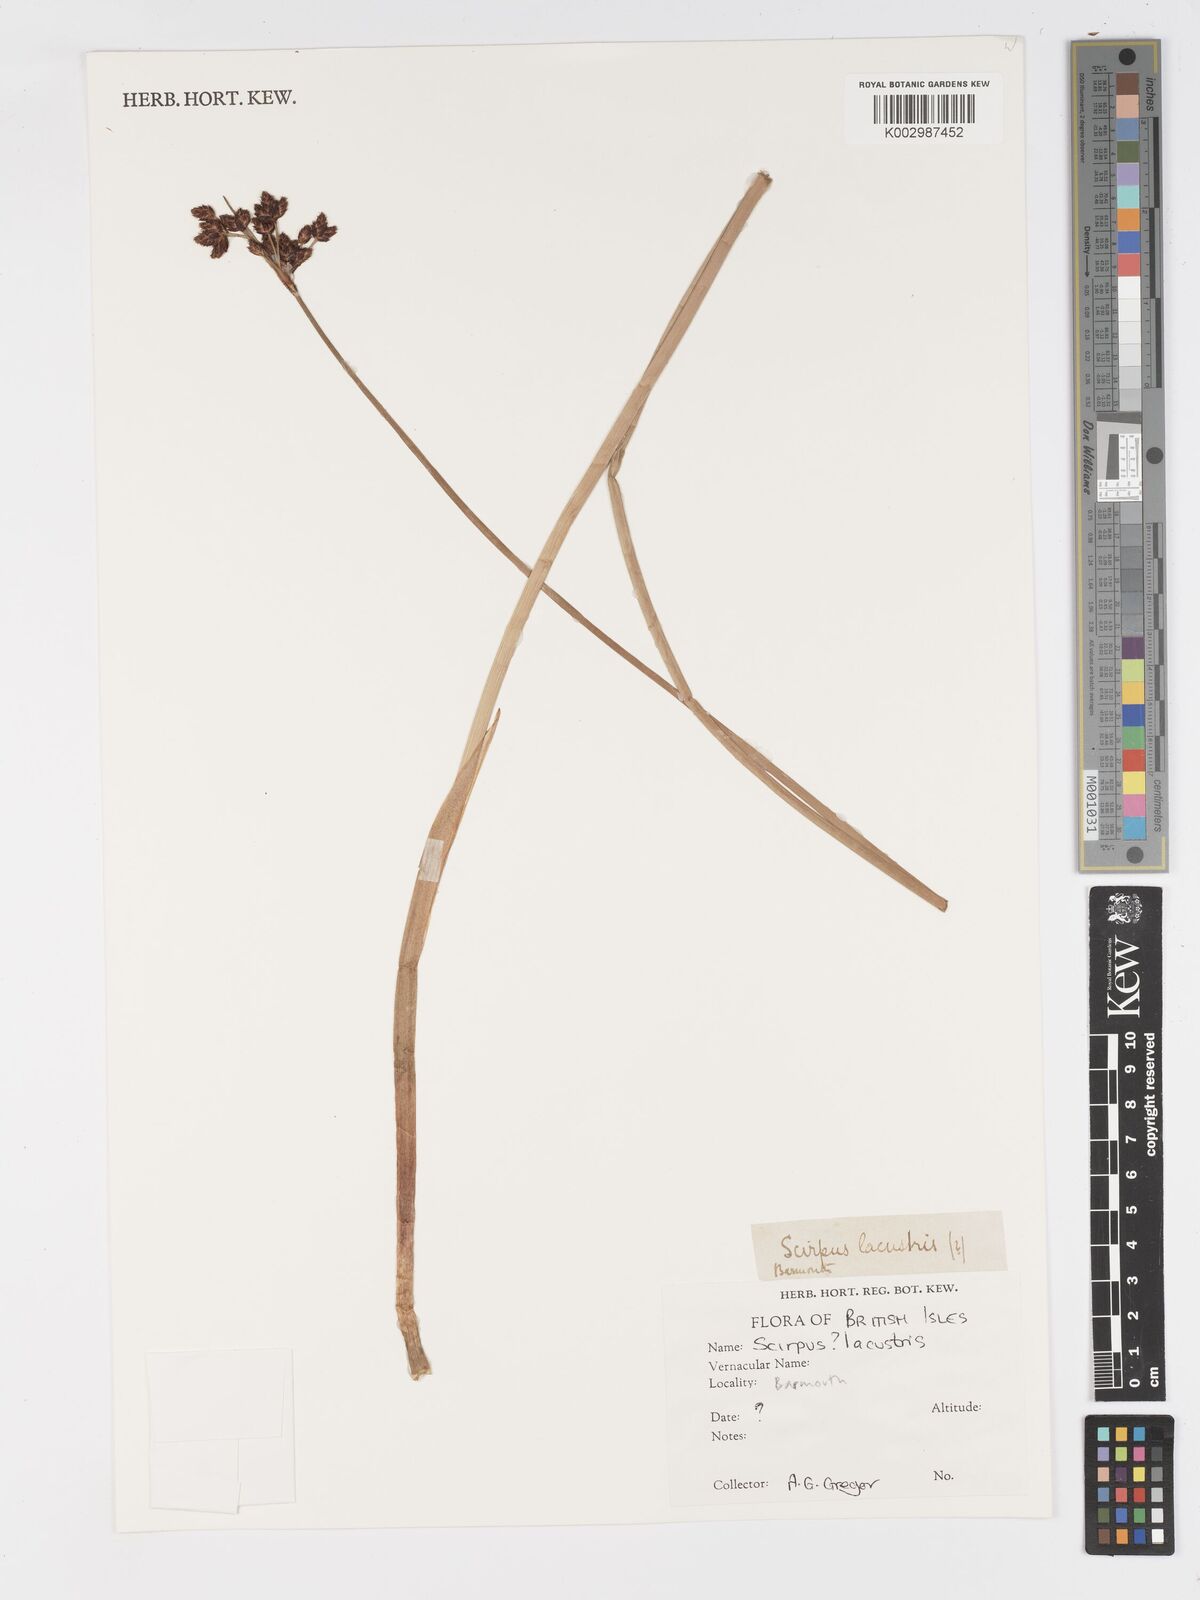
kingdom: Plantae
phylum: Tracheophyta
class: Liliopsida
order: Poales
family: Cyperaceae
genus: Schoenoplectus
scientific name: Schoenoplectus
